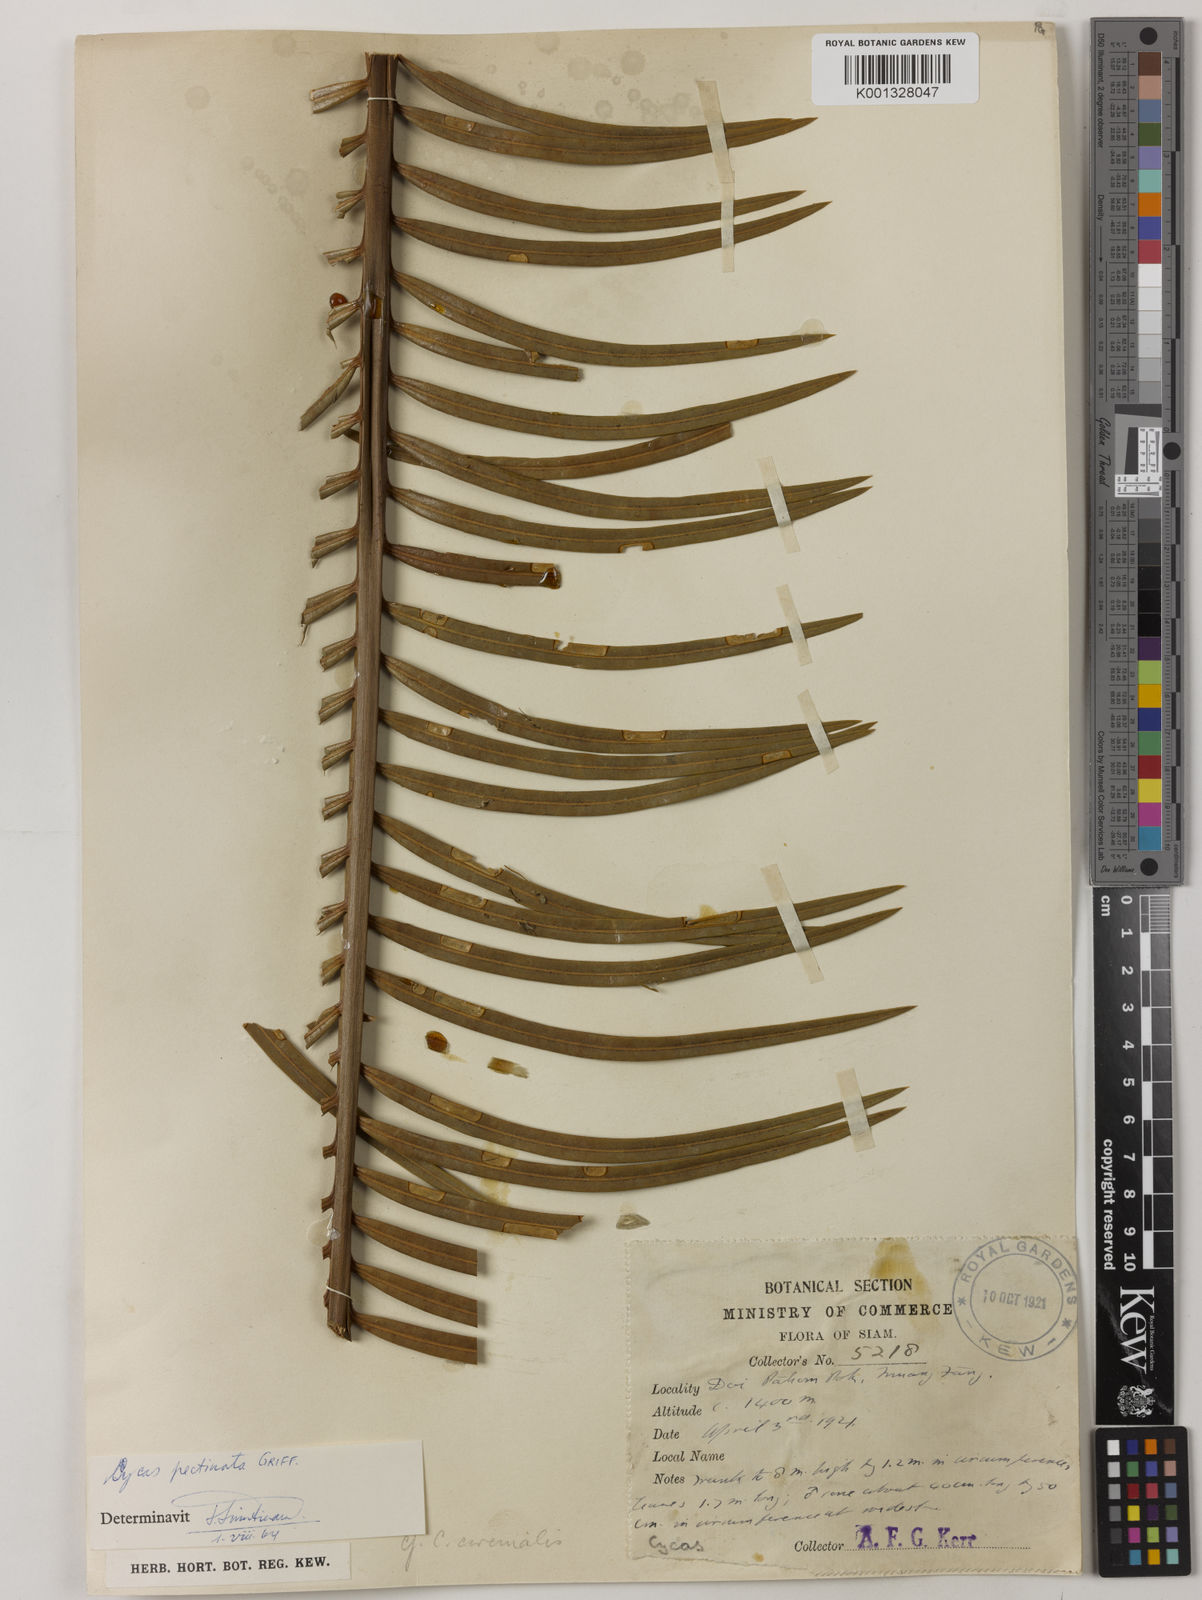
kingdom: Plantae
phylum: Tracheophyta
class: Cycadopsida
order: Cycadales
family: Cycadaceae
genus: Cycas
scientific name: Cycas
